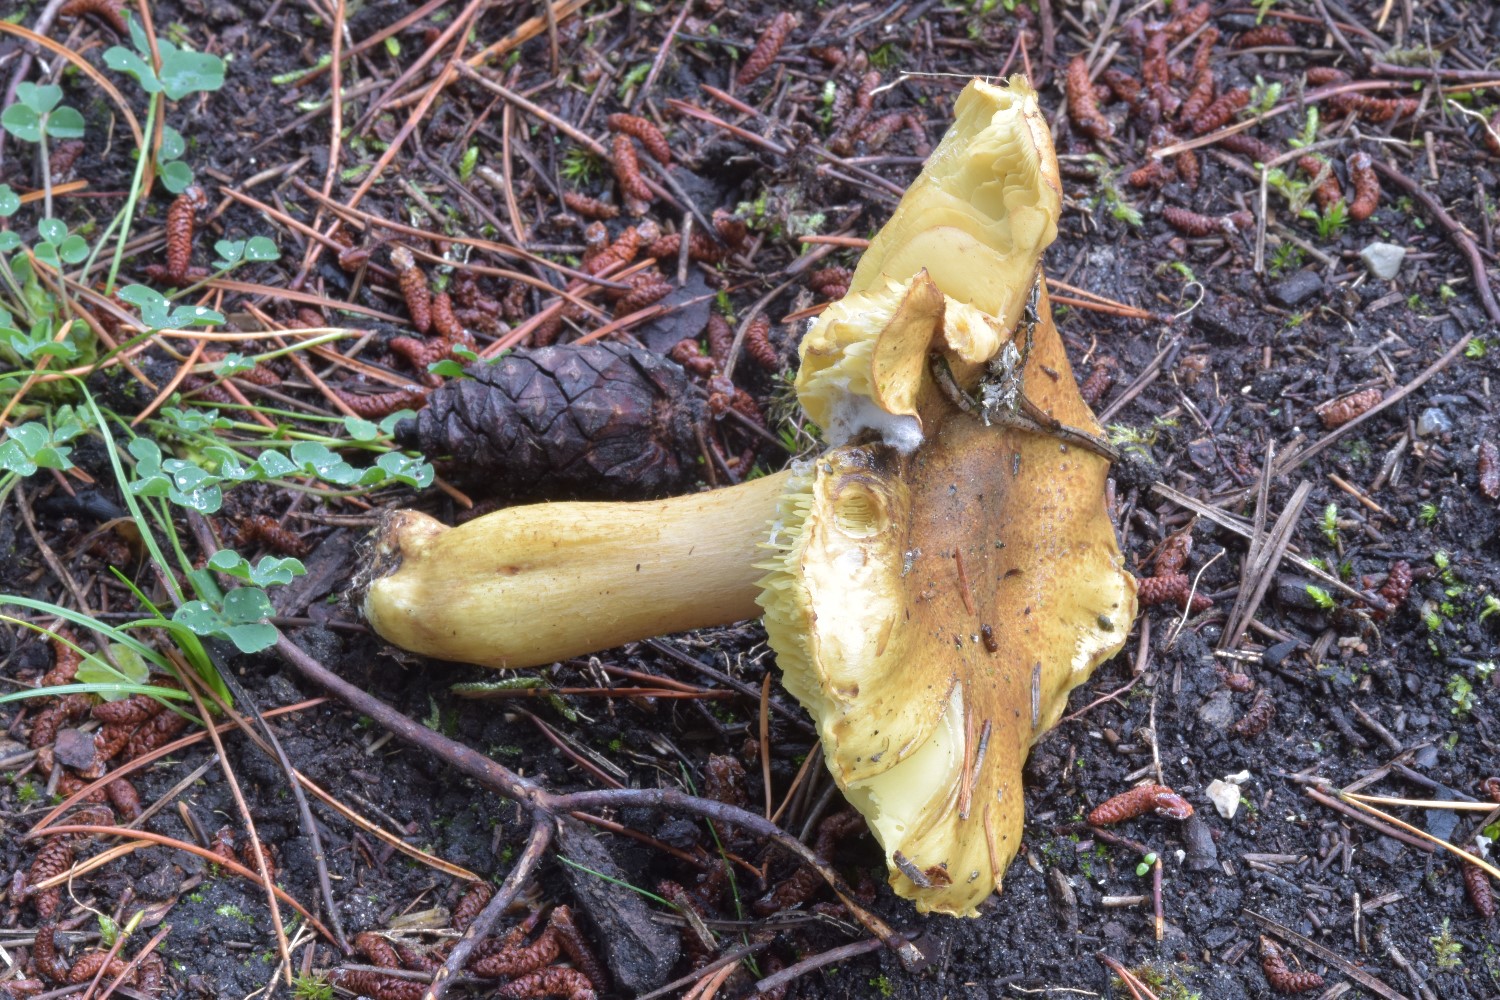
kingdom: Fungi
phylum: Basidiomycota
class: Agaricomycetes
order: Agaricales
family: Tricholomataceae
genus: Tricholoma
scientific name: Tricholoma equestre
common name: ægte ridderhat
